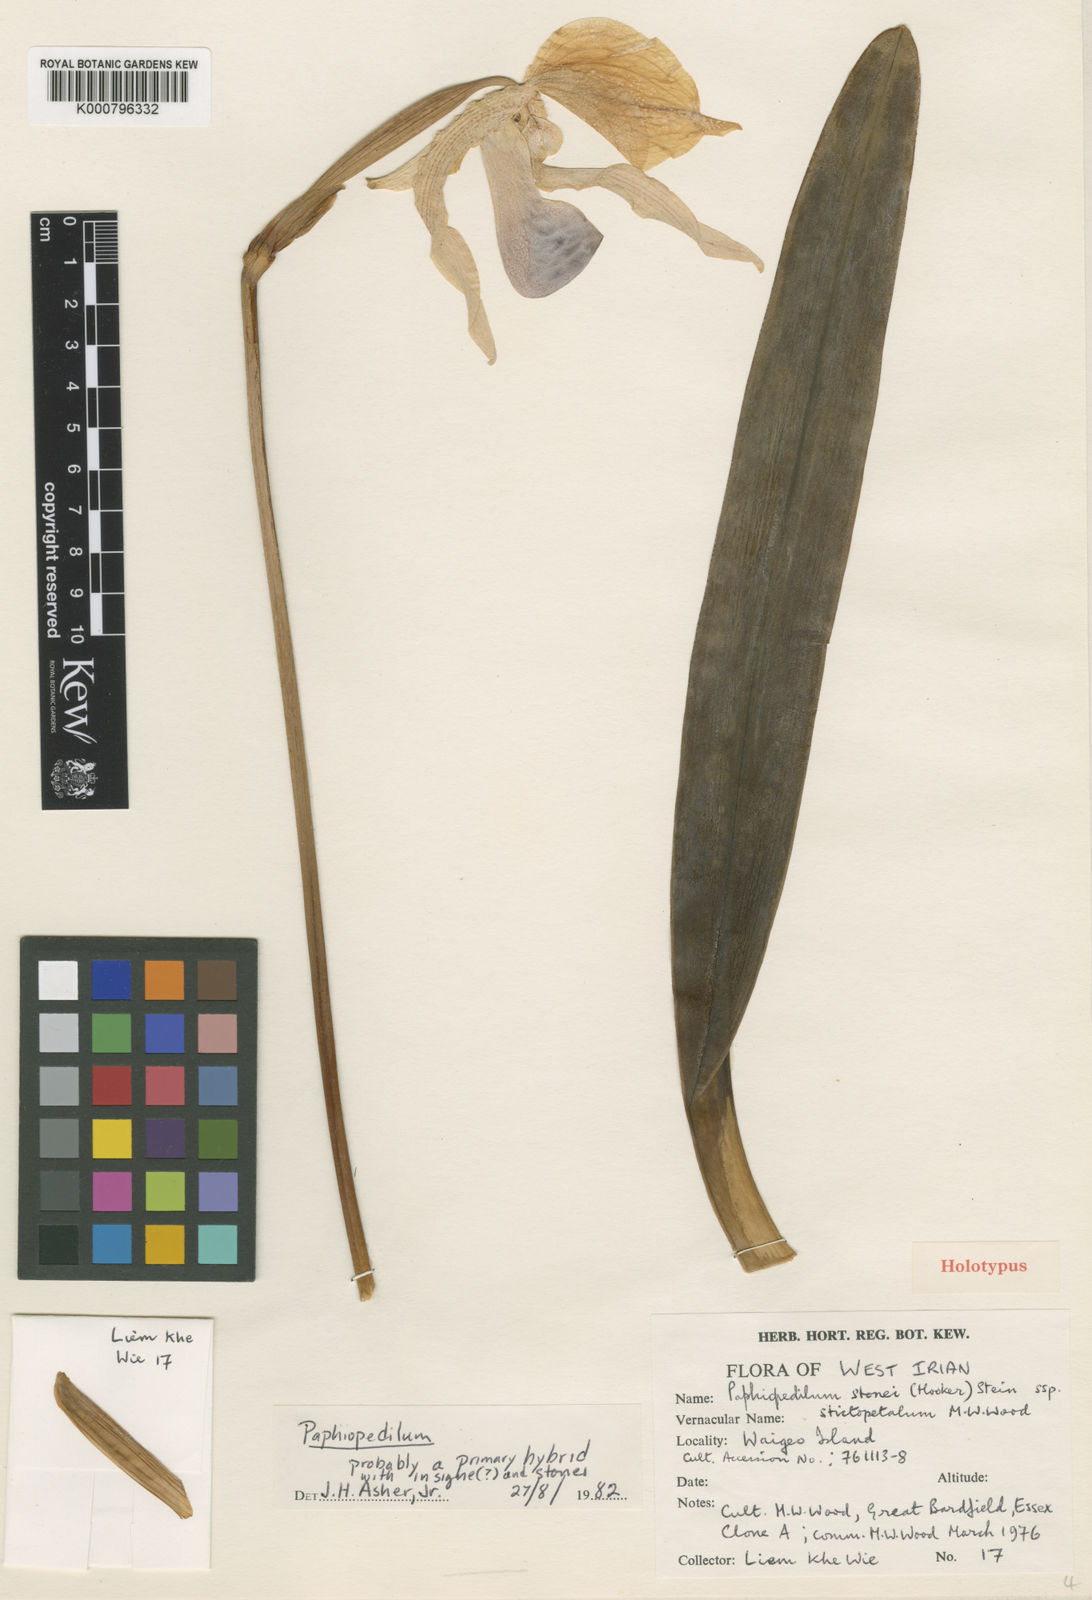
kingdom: Plantae
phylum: Tracheophyta
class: Liliopsida
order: Asparagales
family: Orchidaceae
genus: Cypripedium
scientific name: Cypripedium alice
